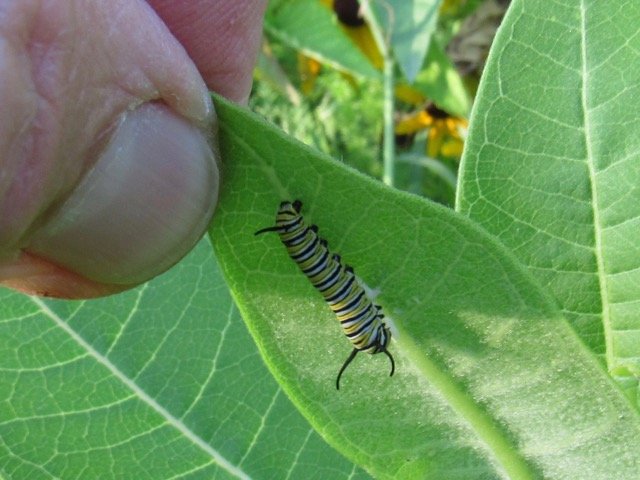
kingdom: Animalia
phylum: Arthropoda
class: Insecta
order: Lepidoptera
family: Nymphalidae
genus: Danaus
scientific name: Danaus plexippus
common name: Monarch
